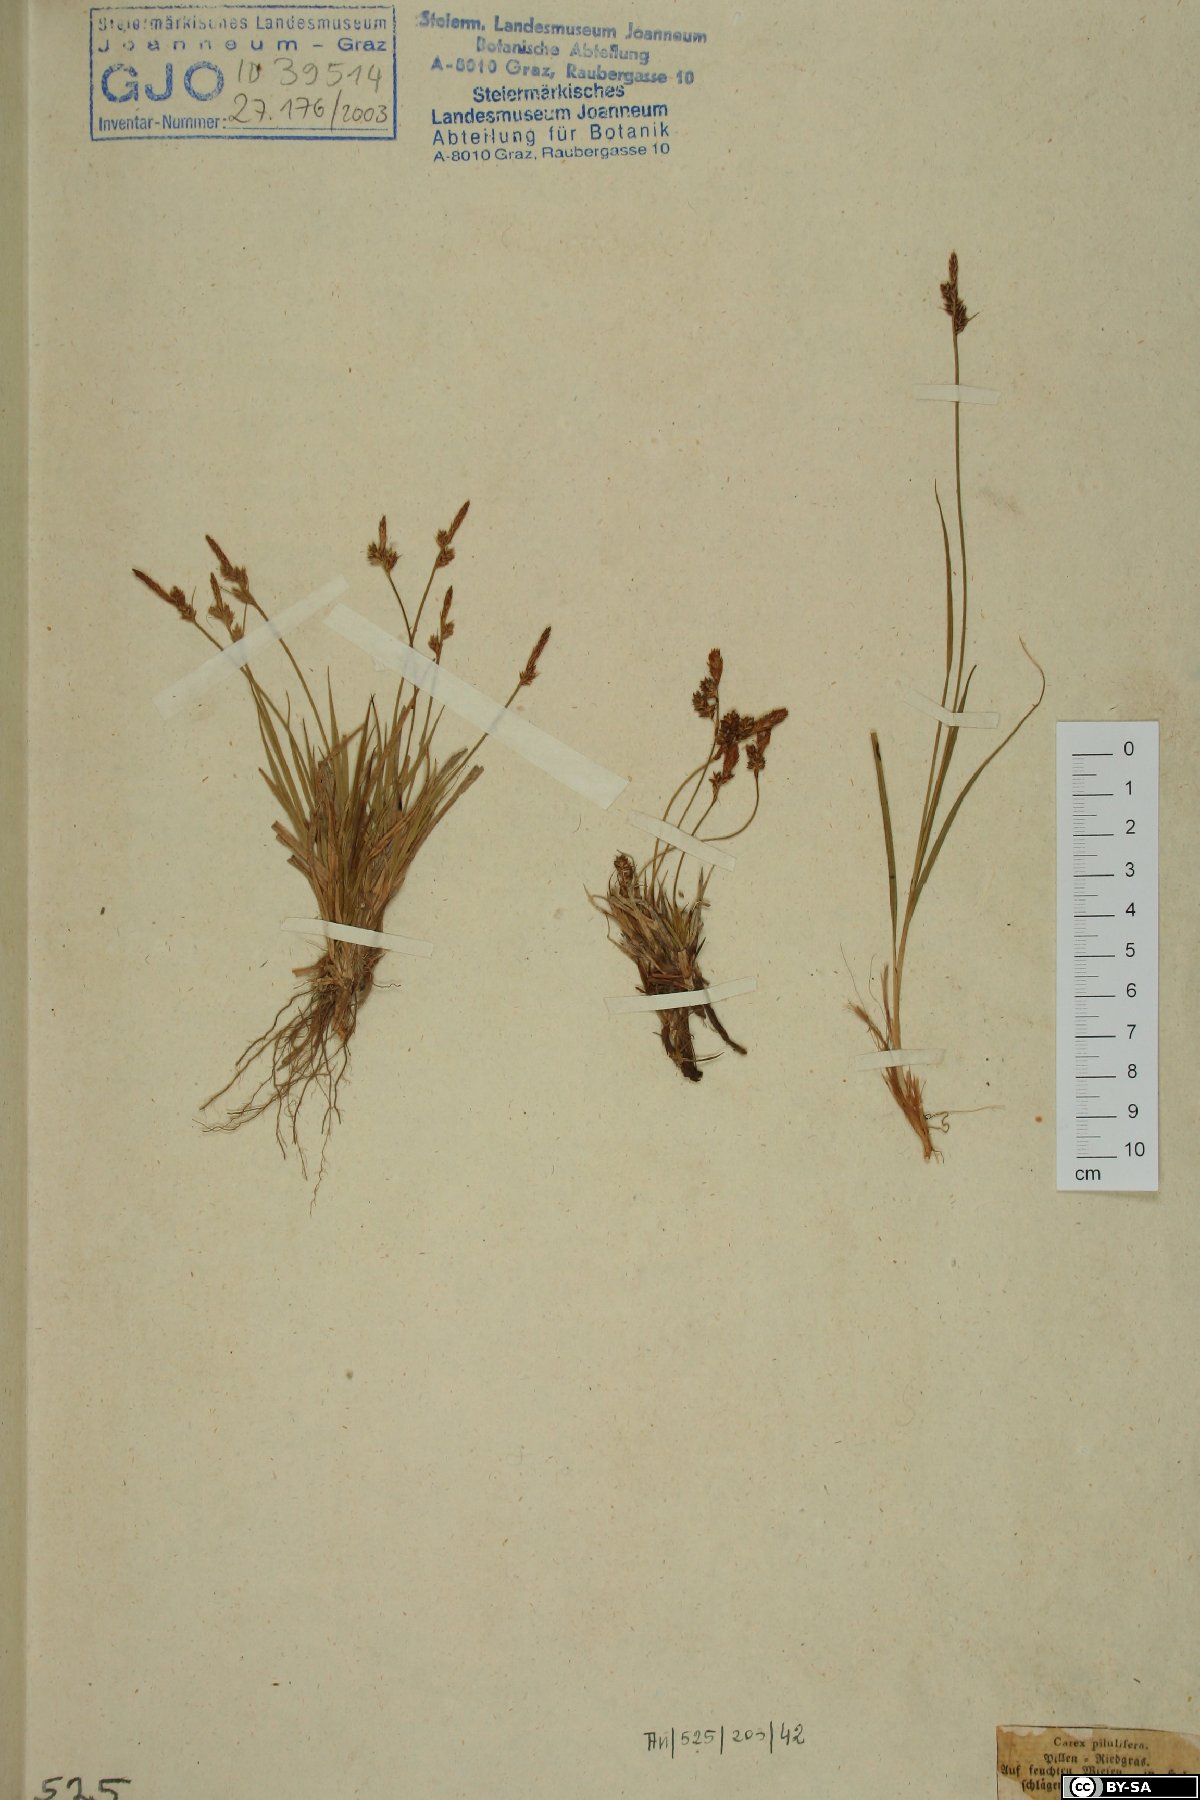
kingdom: Plantae
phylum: Tracheophyta
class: Liliopsida
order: Poales
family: Cyperaceae
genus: Carex
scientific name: Carex pilulifera
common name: Pill sedge
